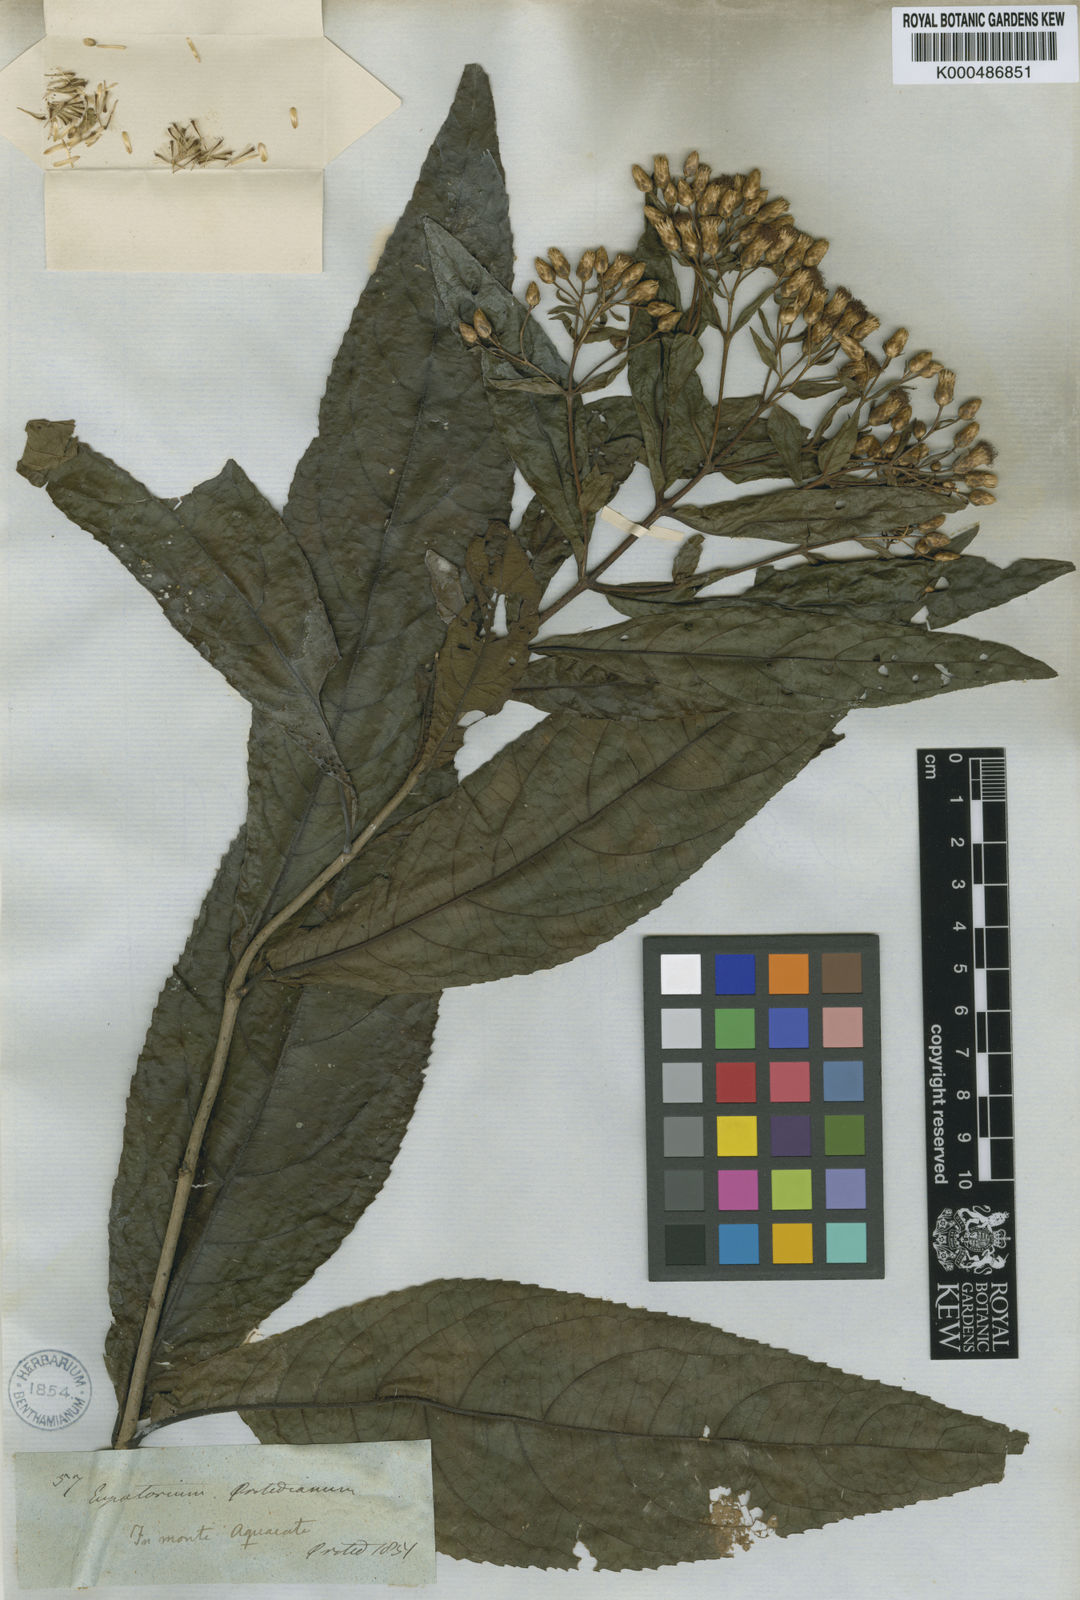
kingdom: Plantae
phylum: Tracheophyta
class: Magnoliopsida
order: Asterales
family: Asteraceae
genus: Chromolaena
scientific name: Chromolaena glaberrima
